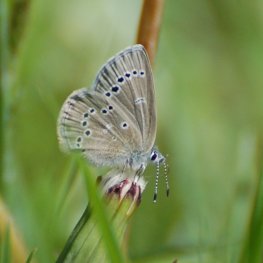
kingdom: Animalia
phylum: Arthropoda
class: Insecta
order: Lepidoptera
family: Lycaenidae
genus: Glaucopsyche
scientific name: Glaucopsyche lygdamus
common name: Silvery Blue
